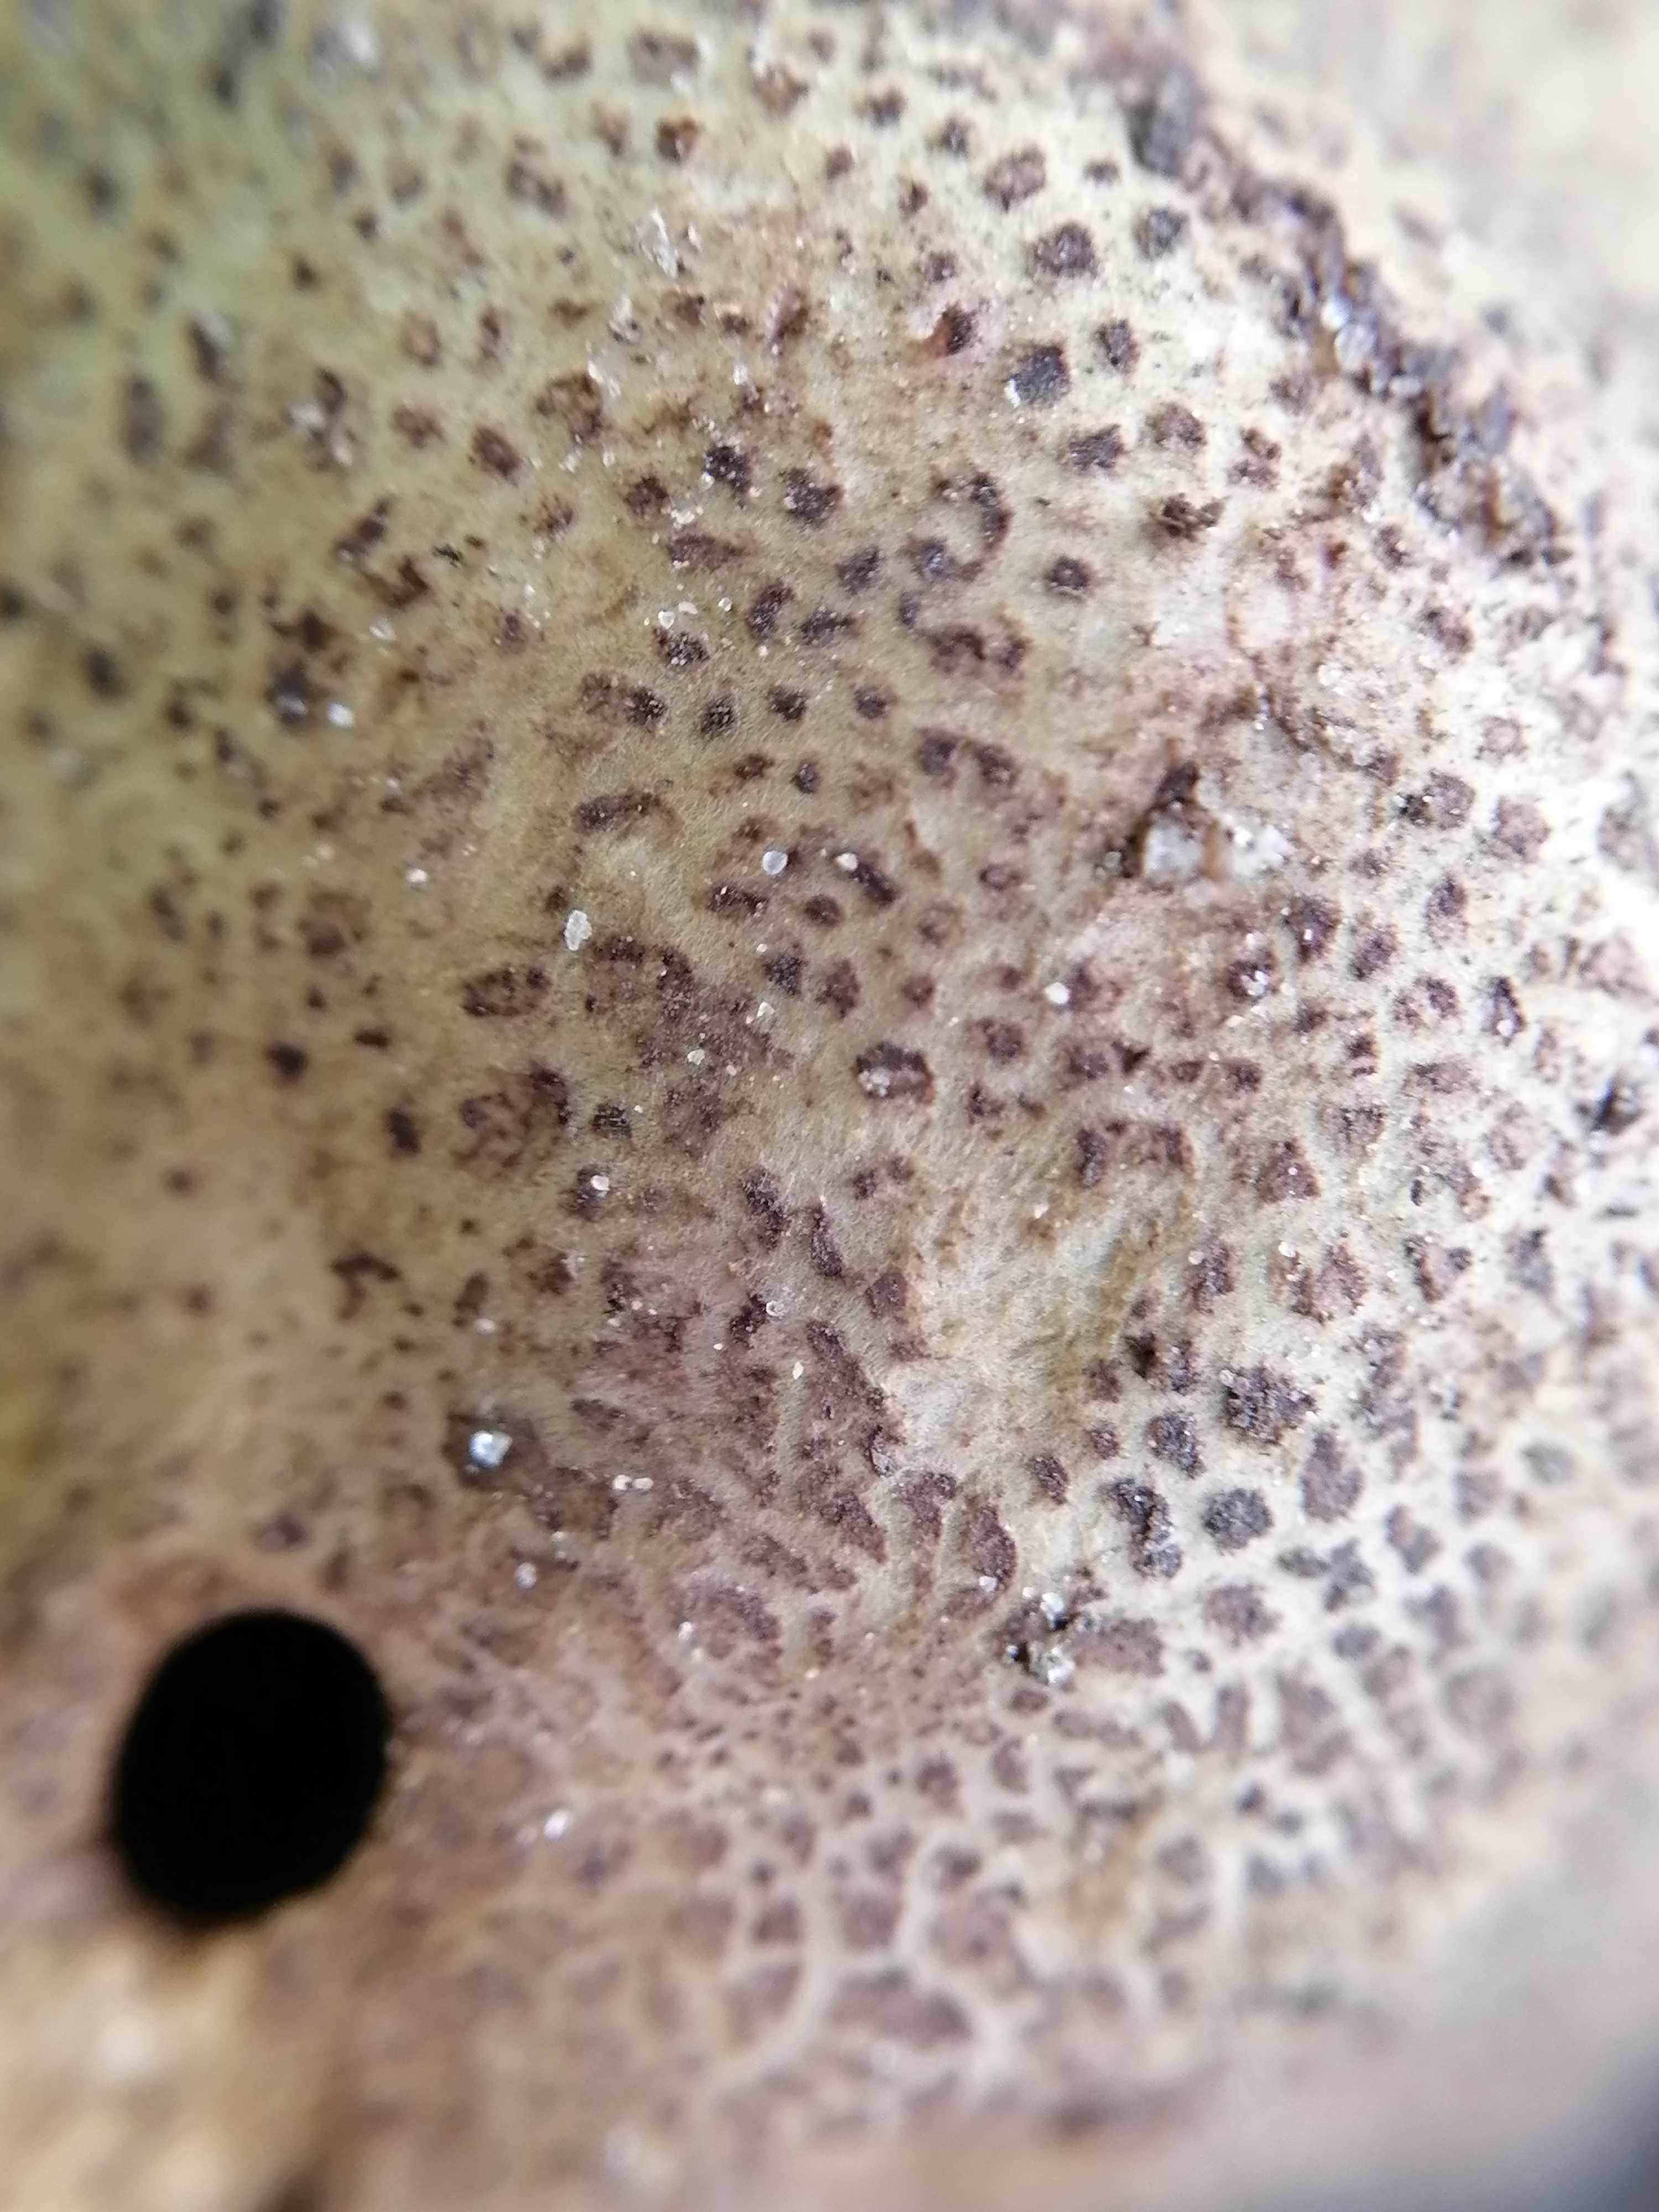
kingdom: Fungi
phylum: Basidiomycota
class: Agaricomycetes
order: Boletales
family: Sclerodermataceae
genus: Scleroderma
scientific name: Scleroderma verrucosum
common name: stilket bruskbold
